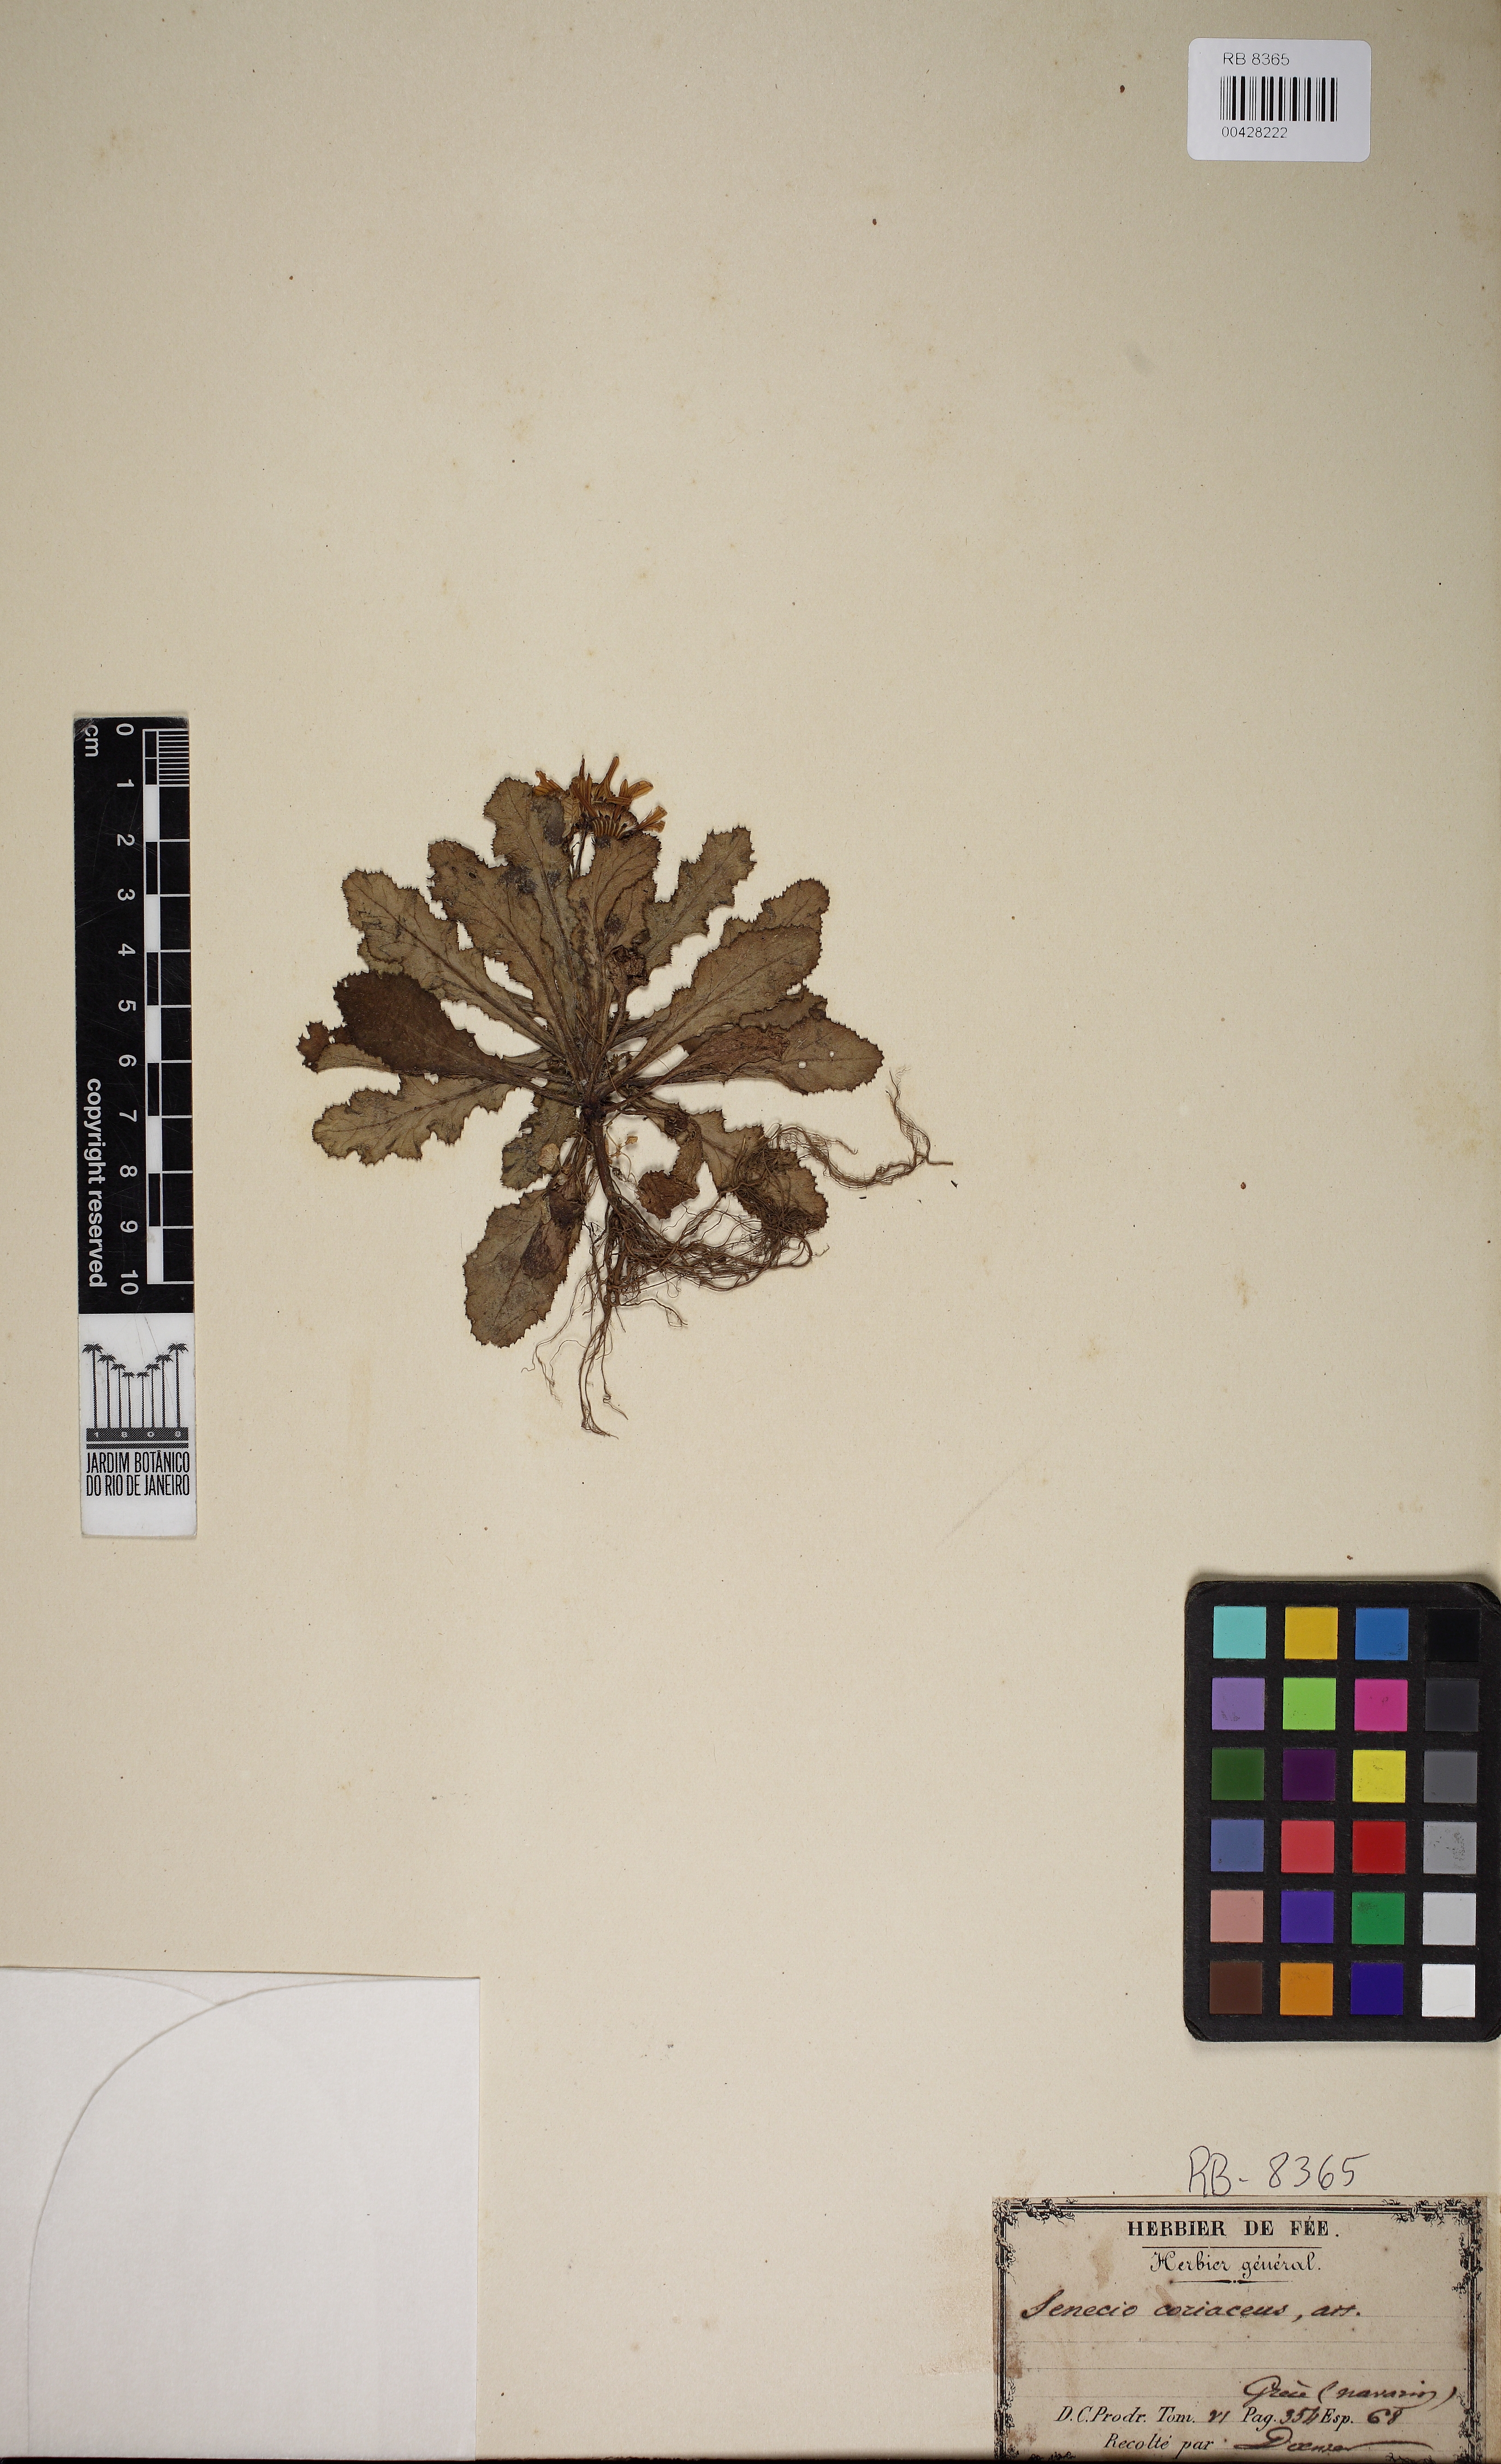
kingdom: Plantae
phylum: Tracheophyta
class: Magnoliopsida
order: Asterales
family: Asteraceae
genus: Senecio
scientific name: Senecio doria
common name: Golden ragwort
